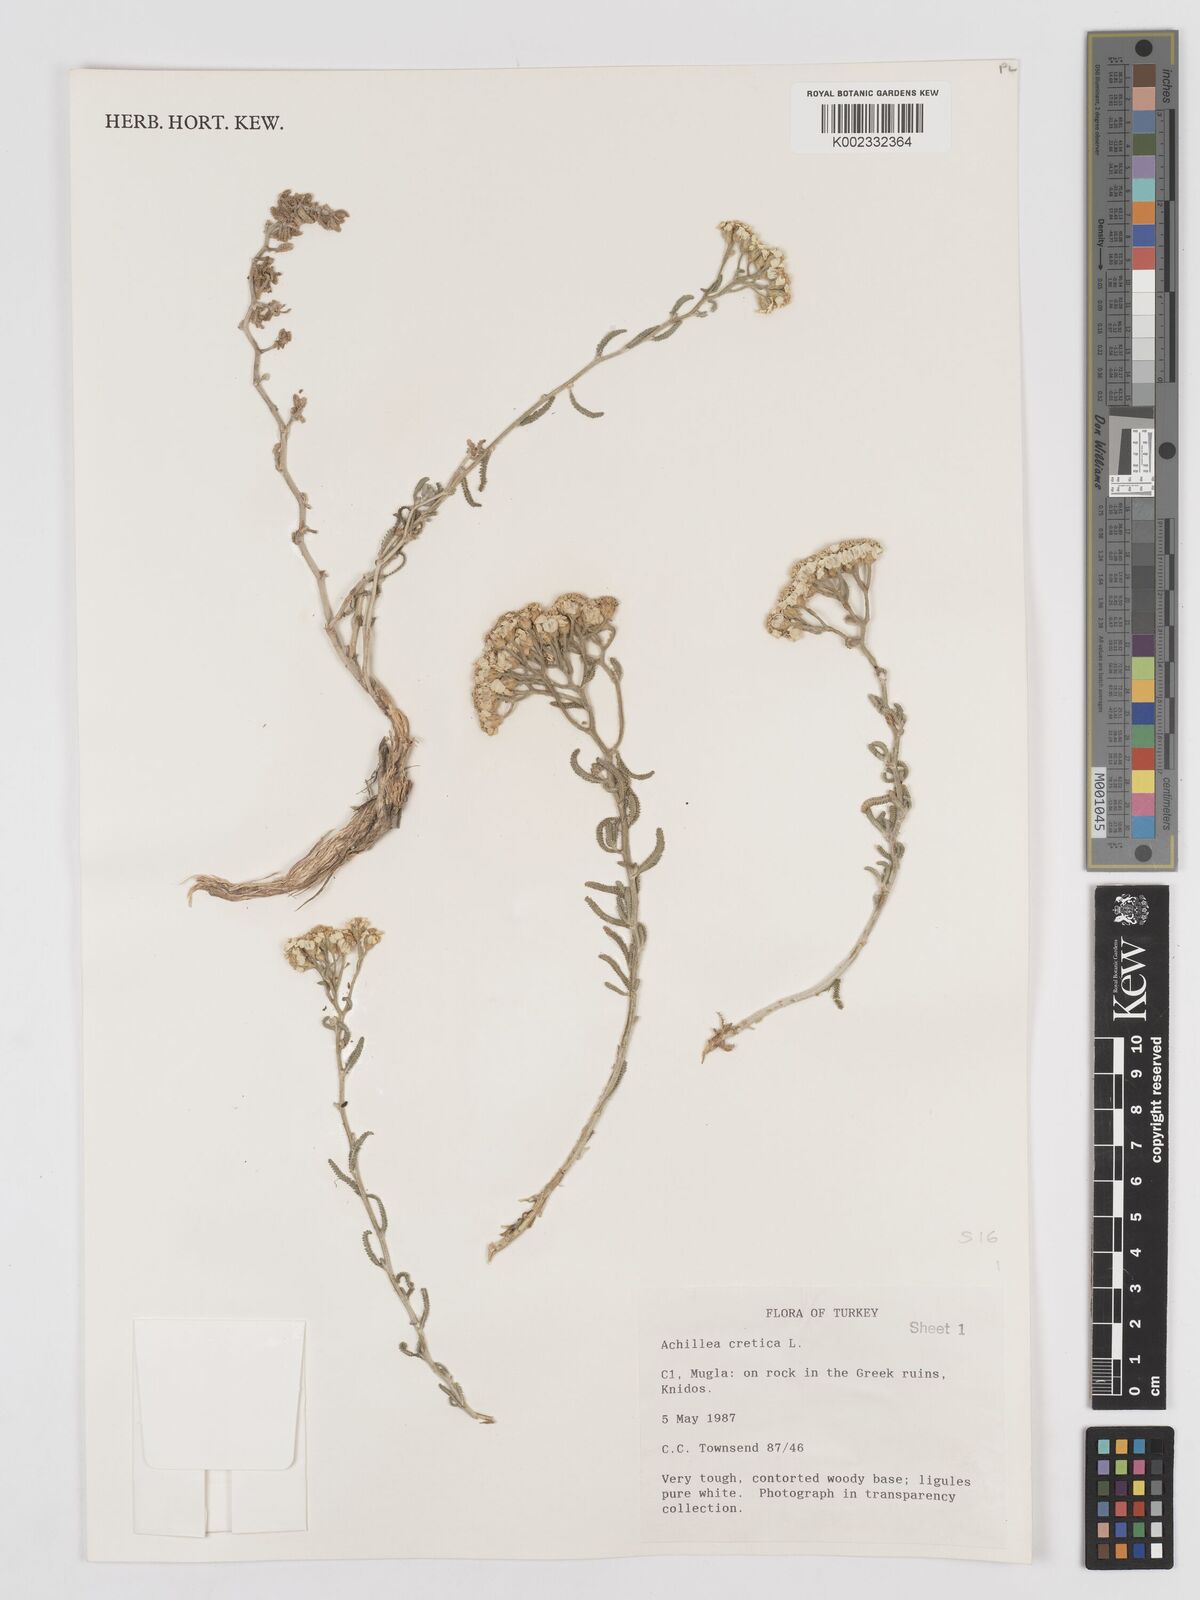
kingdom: Plantae
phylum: Tracheophyta
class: Magnoliopsida
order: Asterales
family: Asteraceae
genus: Achillea
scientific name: Achillea cretica
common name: Chamomile-leaved lavender-cotton
